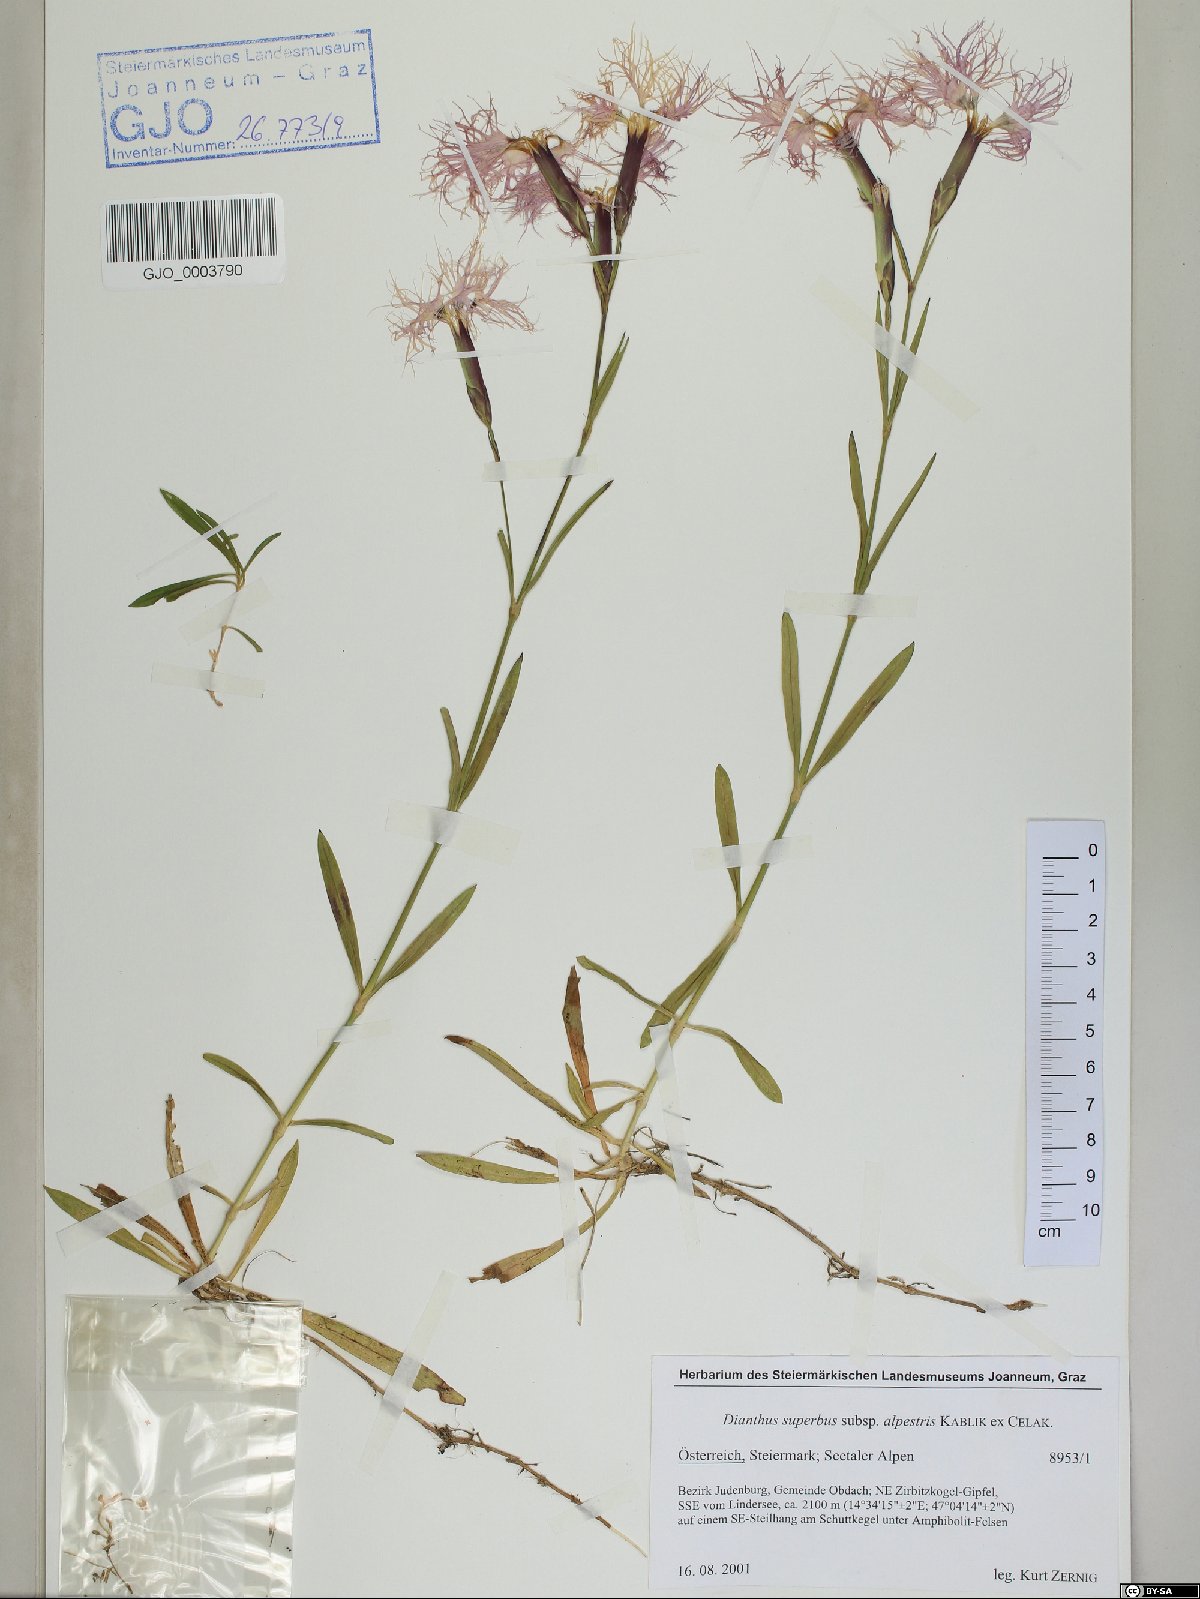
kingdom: Plantae
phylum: Tracheophyta
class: Magnoliopsida
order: Caryophyllales
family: Caryophyllaceae
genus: Dianthus
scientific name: Dianthus superbus
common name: Fringed pink
